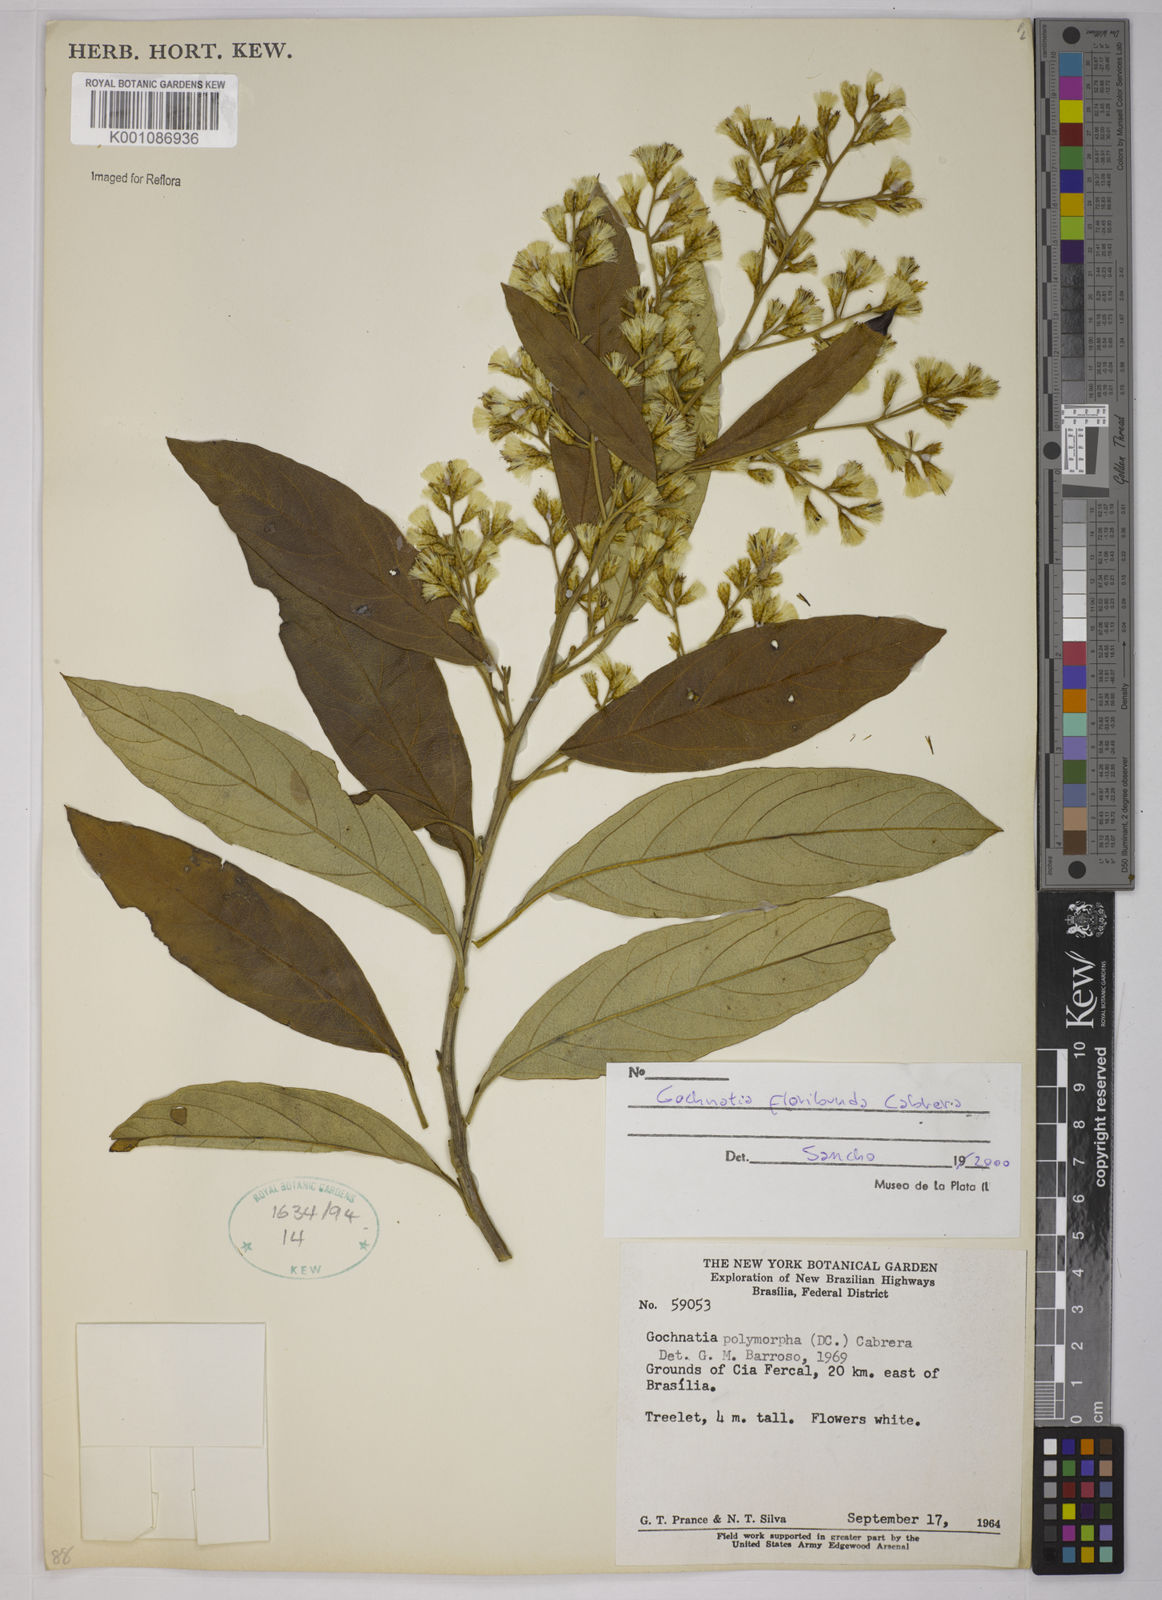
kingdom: Plantae
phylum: Tracheophyta
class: Magnoliopsida
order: Asterales
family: Asteraceae
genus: Moquiniastrum
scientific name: Moquiniastrum floribundum
